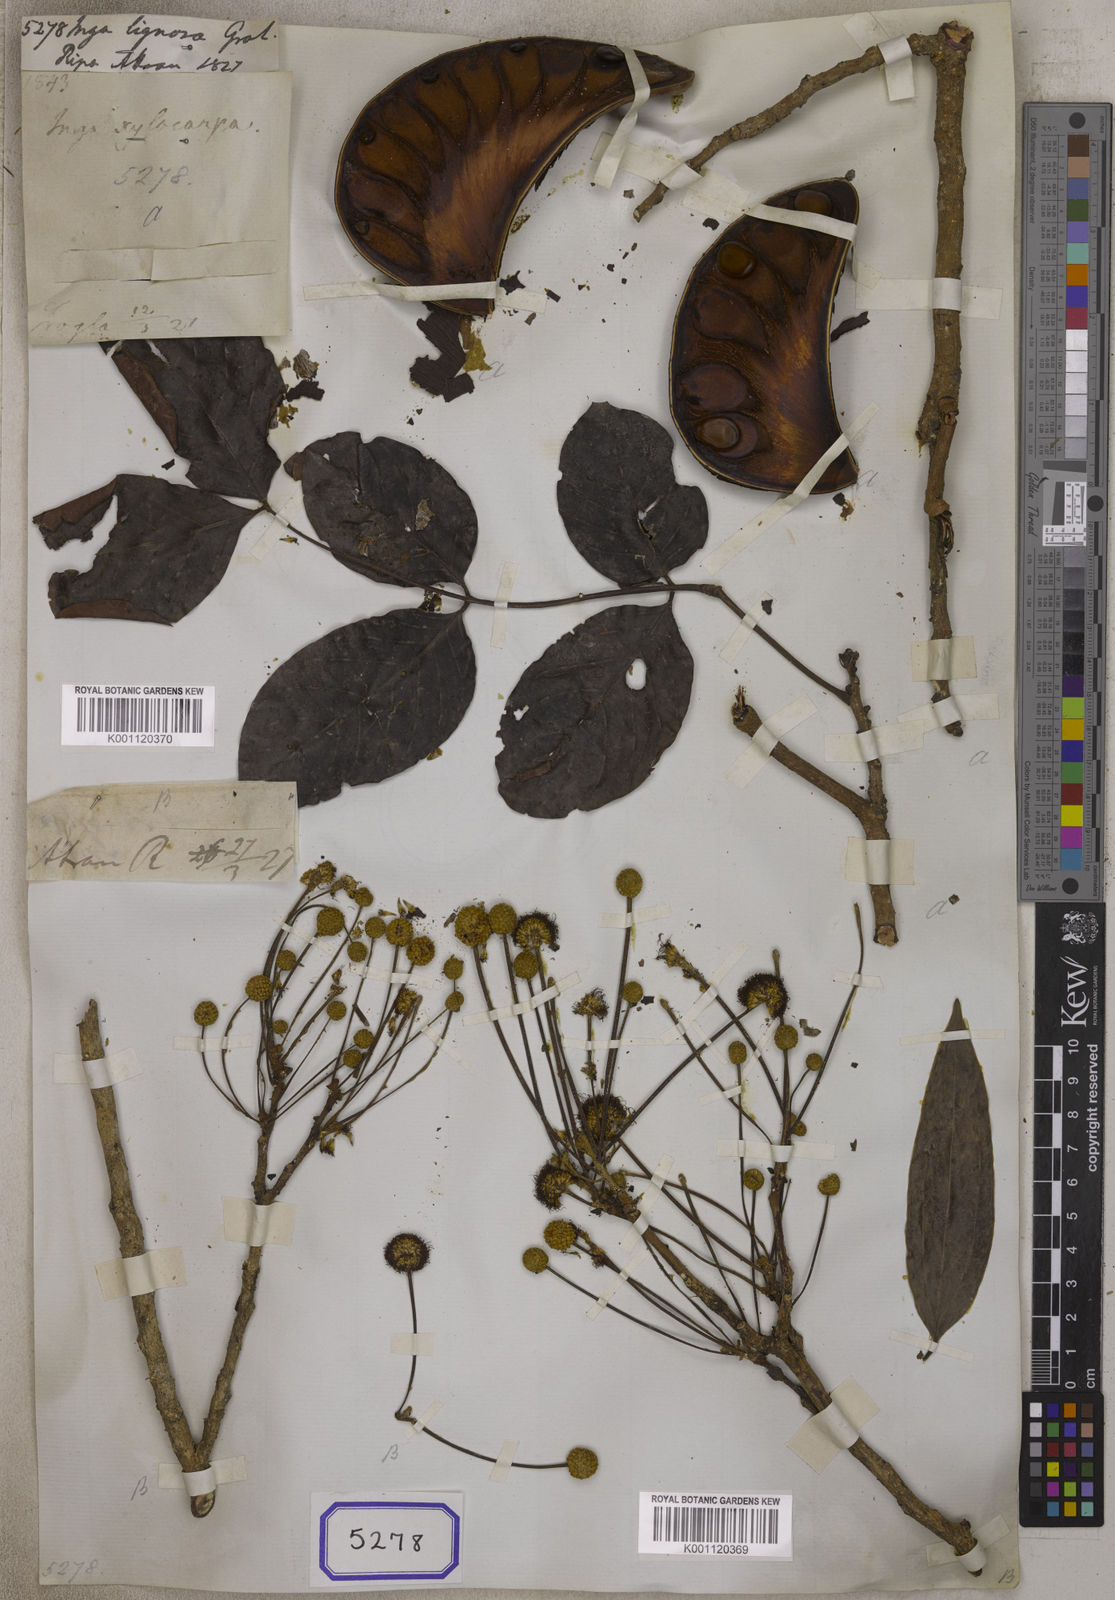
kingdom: Plantae
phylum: Tracheophyta
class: Magnoliopsida
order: Fabales
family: Fabaceae
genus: Xylia
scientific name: Xylia xylocarpa
